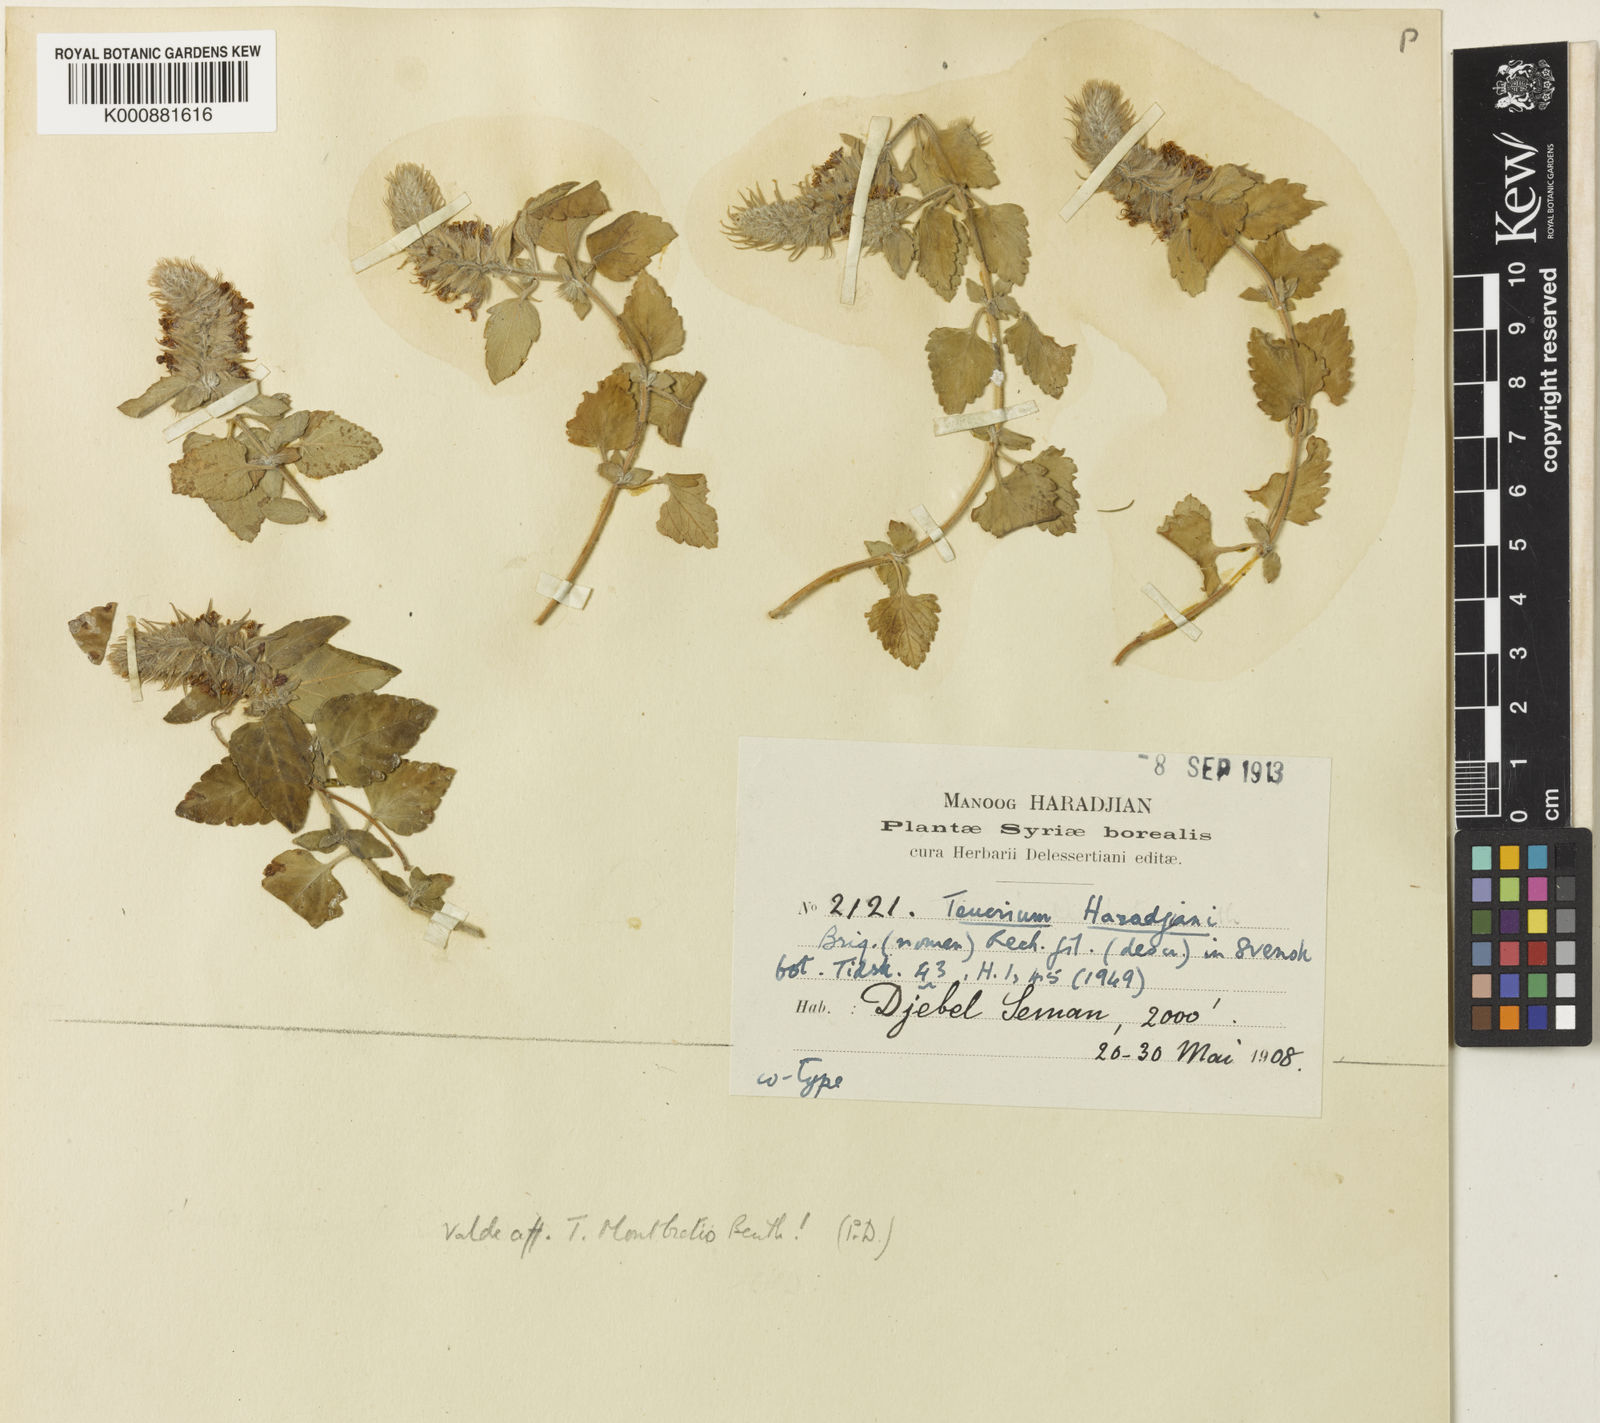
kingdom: Plantae
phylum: Tracheophyta
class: Magnoliopsida
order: Lamiales
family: Lamiaceae
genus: Teucrium
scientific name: Teucrium haradjanii
